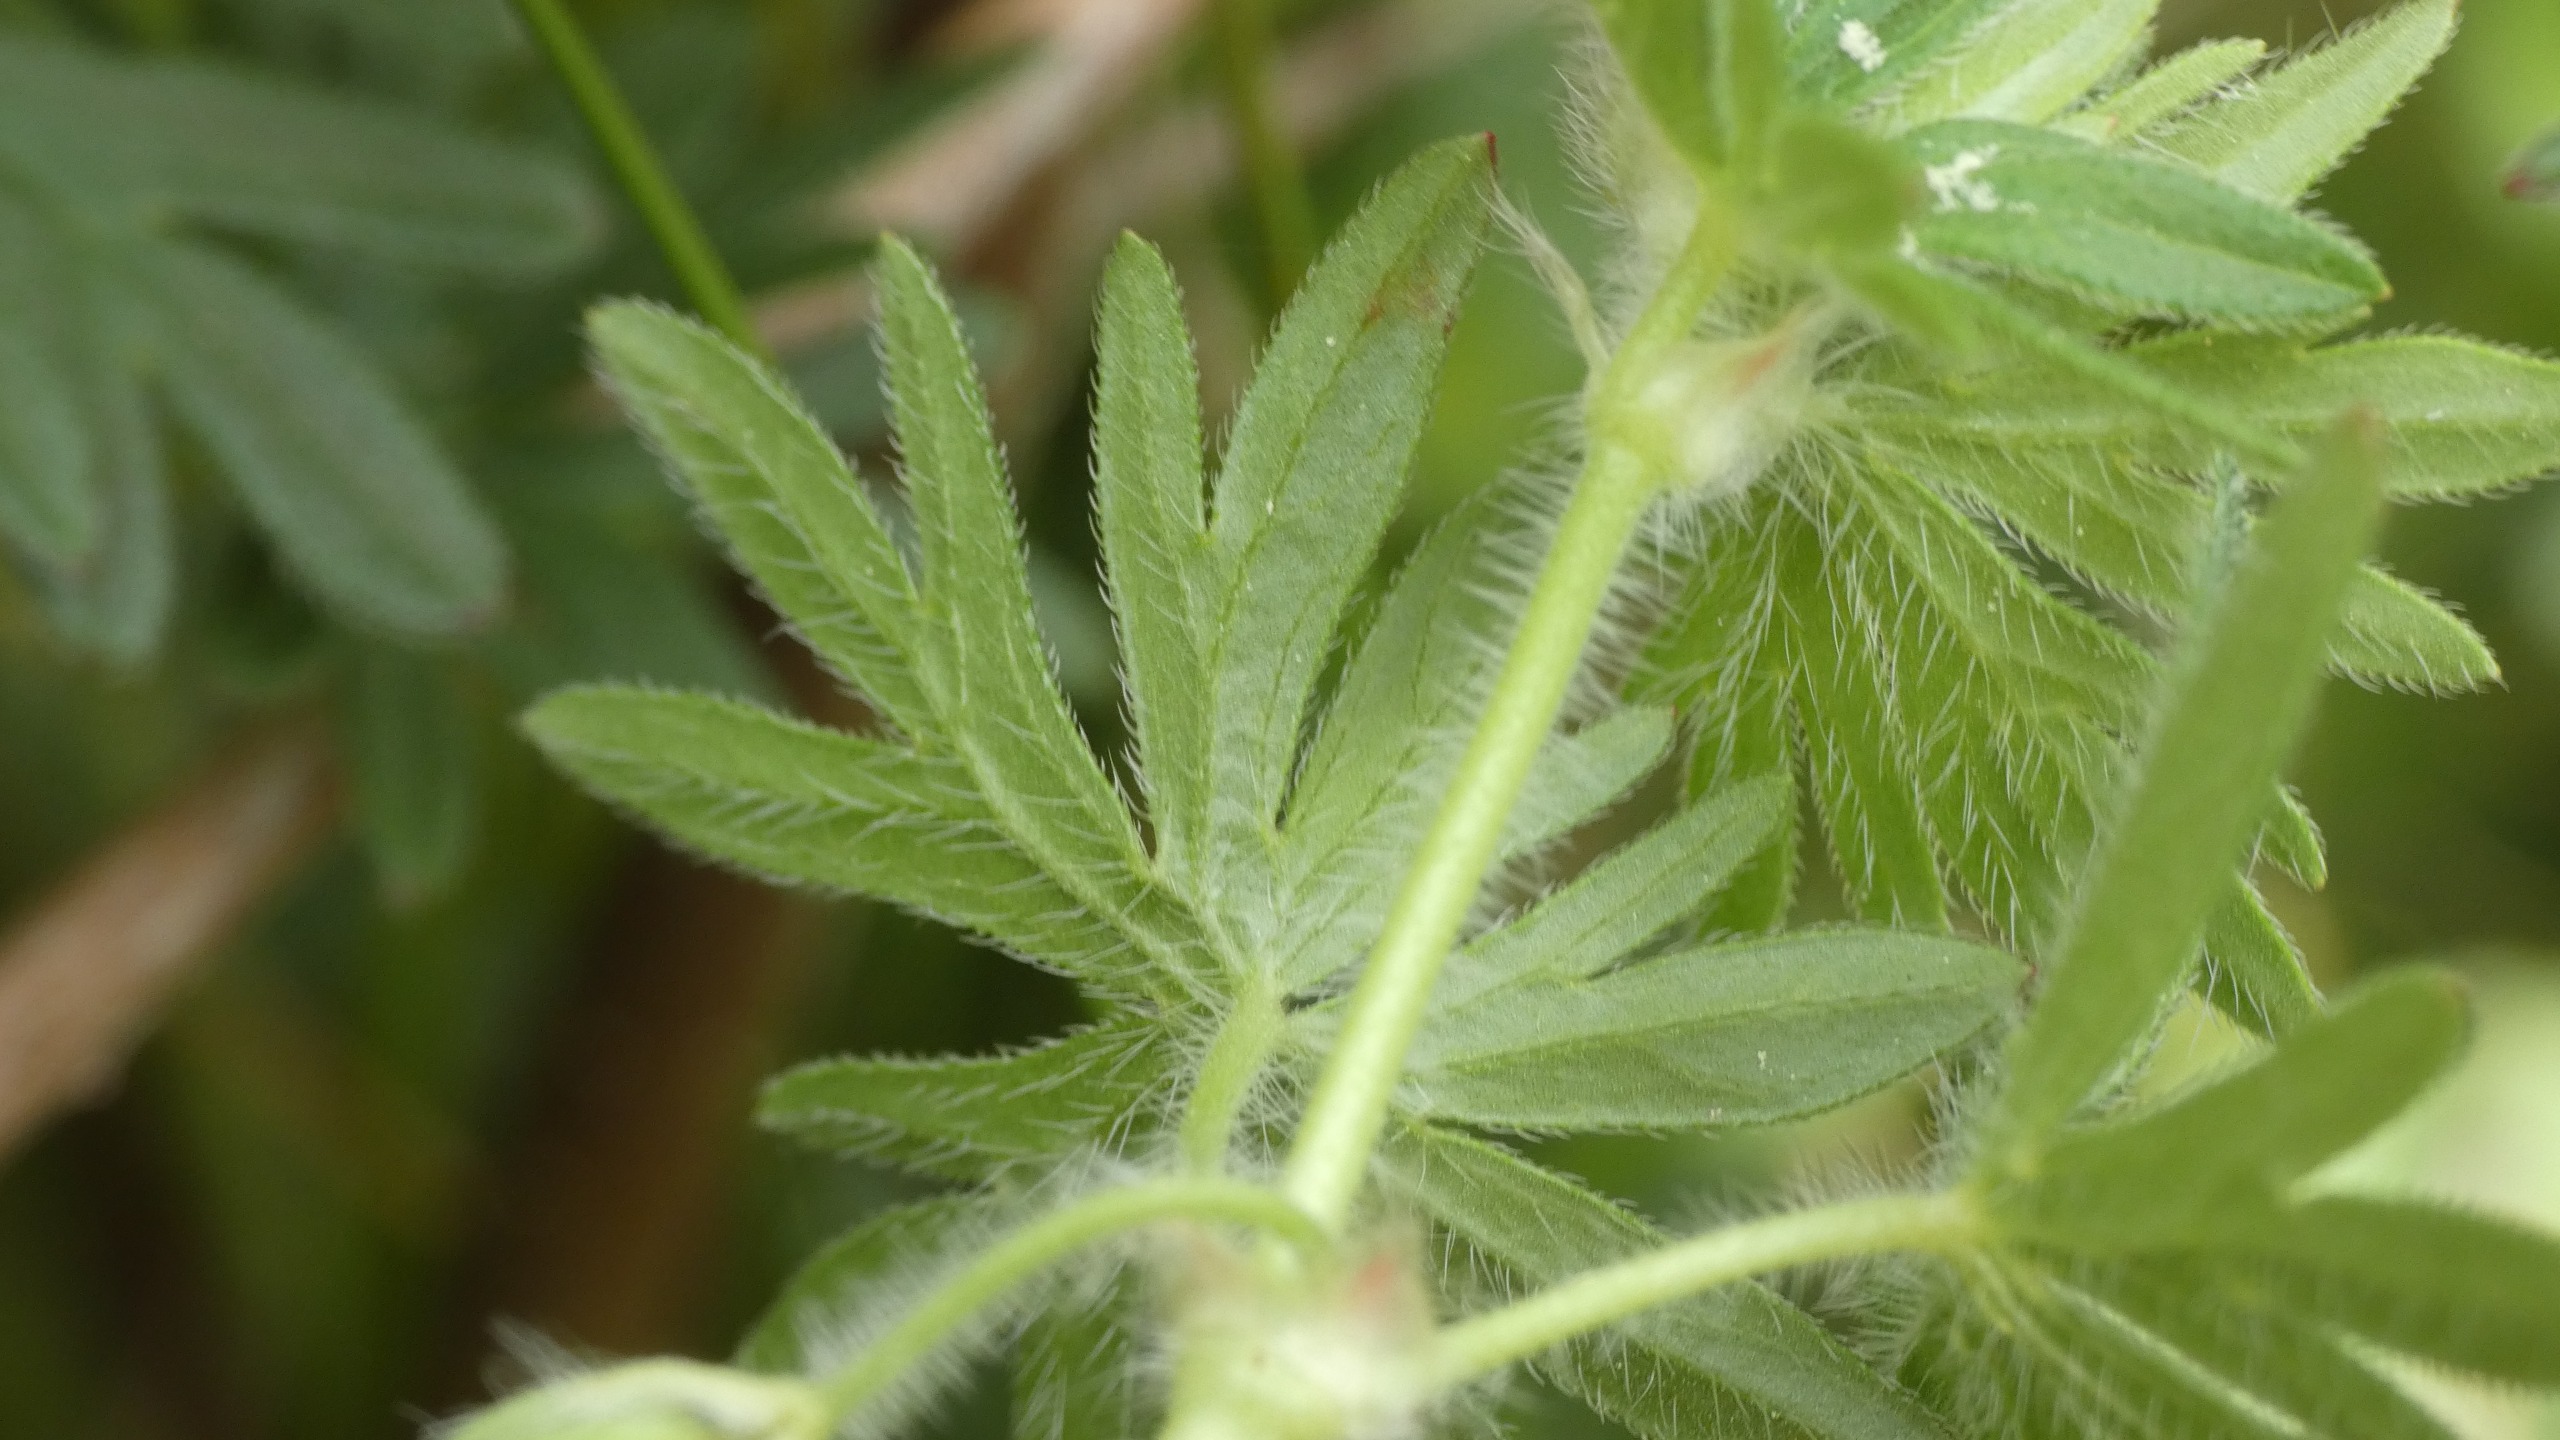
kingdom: Plantae
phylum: Tracheophyta
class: Magnoliopsida
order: Geraniales
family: Geraniaceae
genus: Geranium
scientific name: Geranium sanguineum
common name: Blodrød storkenæb
